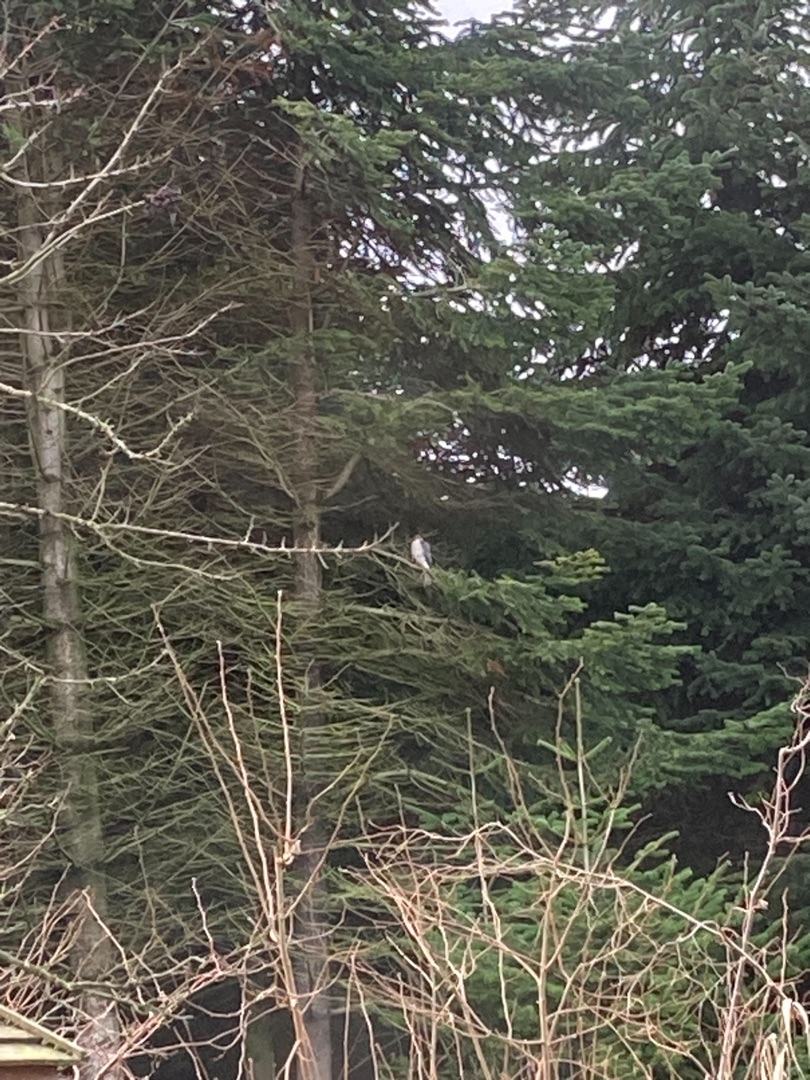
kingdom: Animalia
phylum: Chordata
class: Aves
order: Accipitriformes
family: Accipitridae
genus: Accipiter
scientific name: Accipiter nisus
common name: Spurvehøg
